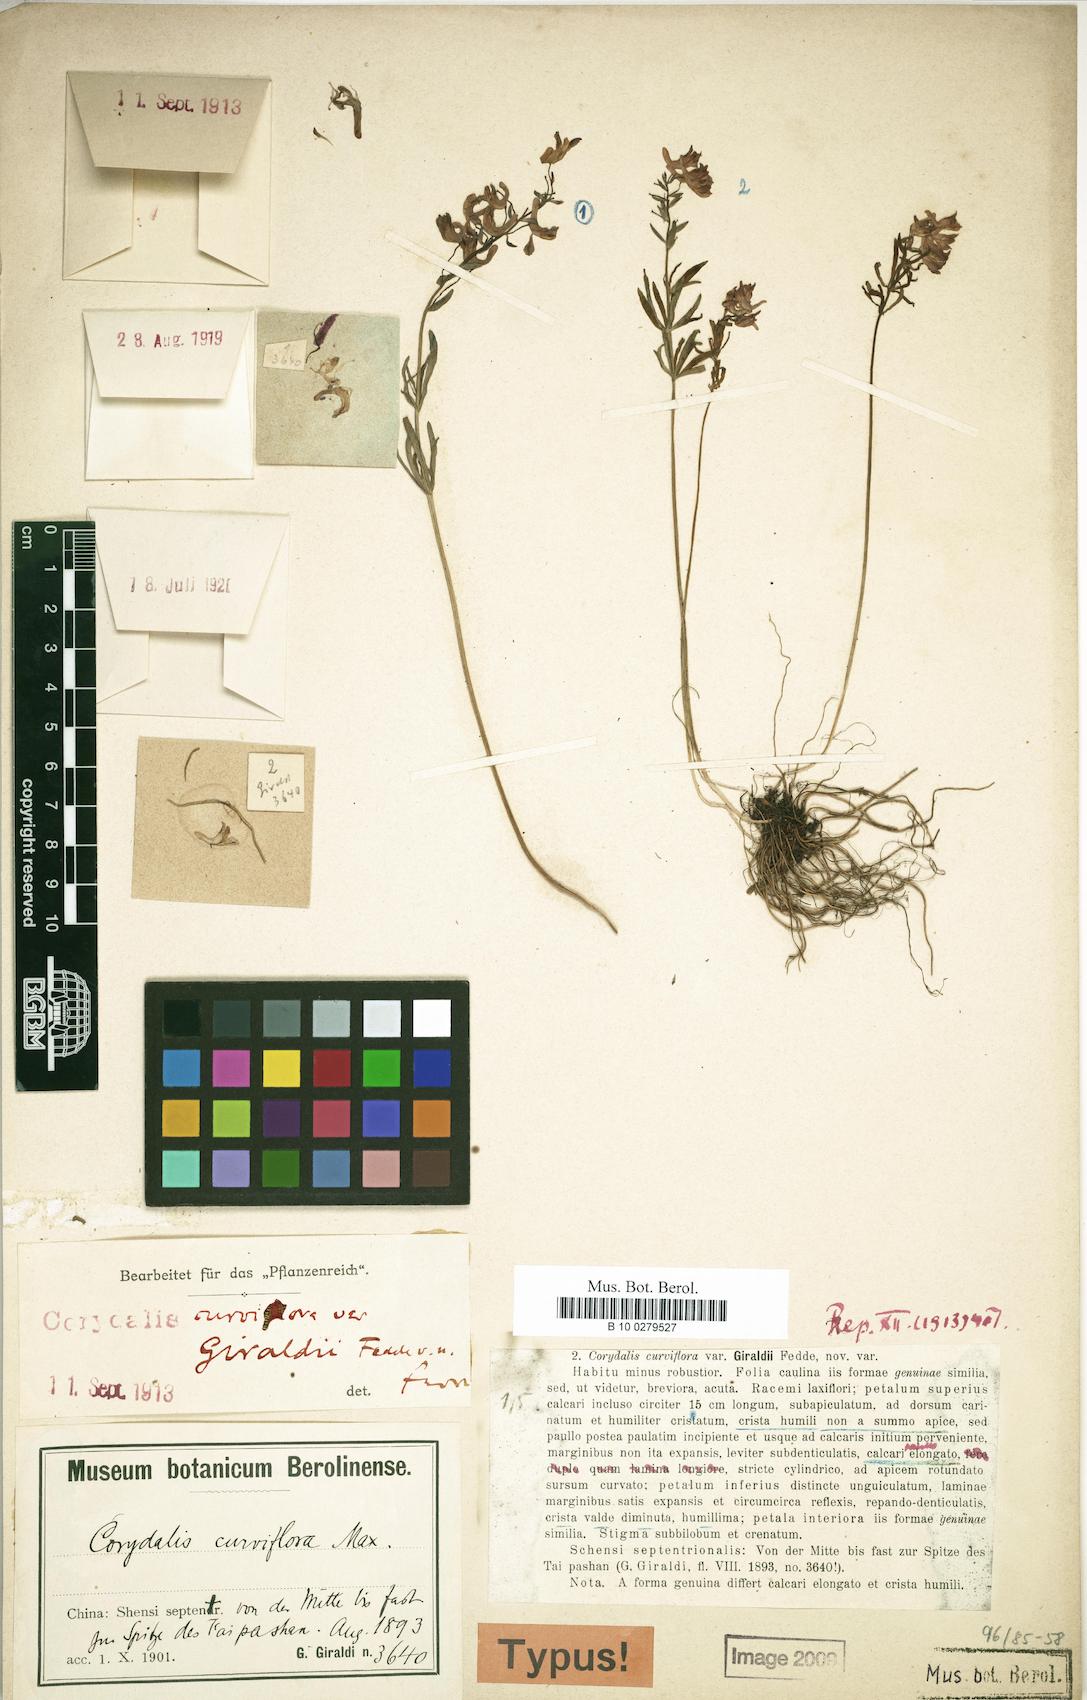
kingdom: Plantae
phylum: Tracheophyta
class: Magnoliopsida
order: Ranunculales
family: Papaveraceae
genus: Corydalis
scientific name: Corydalis shensiana
